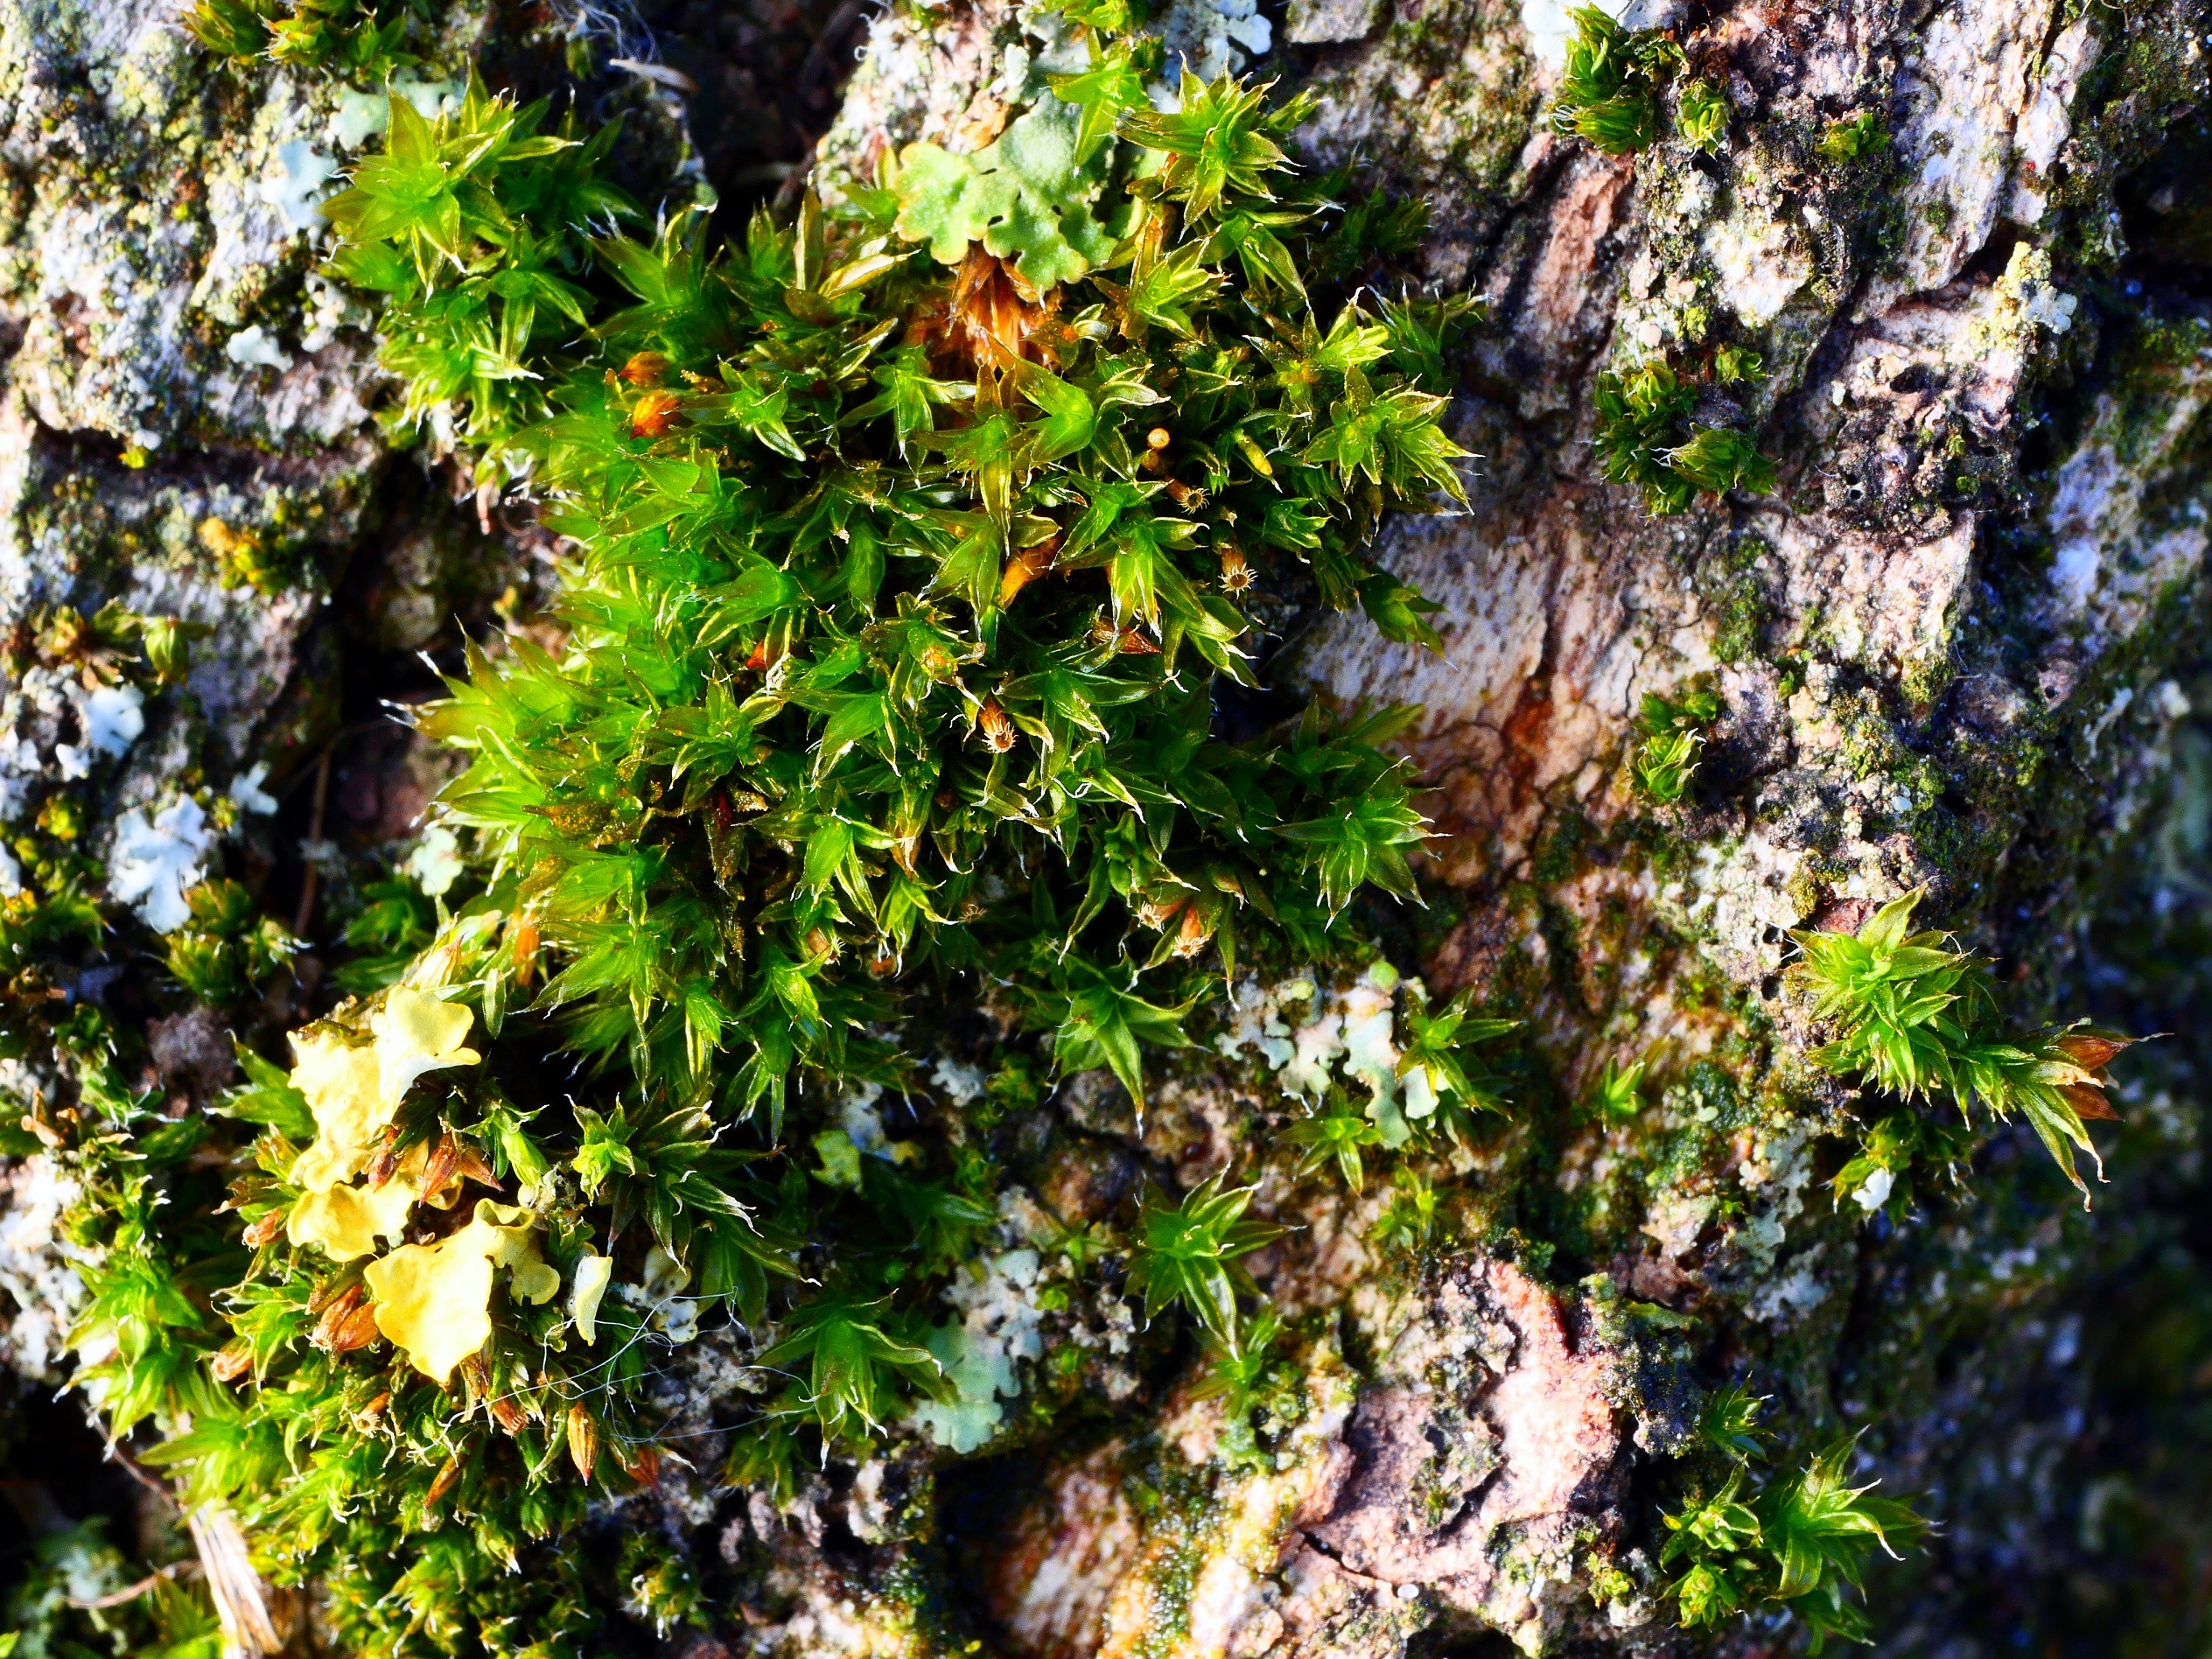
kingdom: Plantae
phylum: Bryophyta
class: Bryopsida
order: Orthotrichales
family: Orthotrichaceae
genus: Orthotrichum
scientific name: Orthotrichum diaphanum
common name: Hårspidset furehætte
